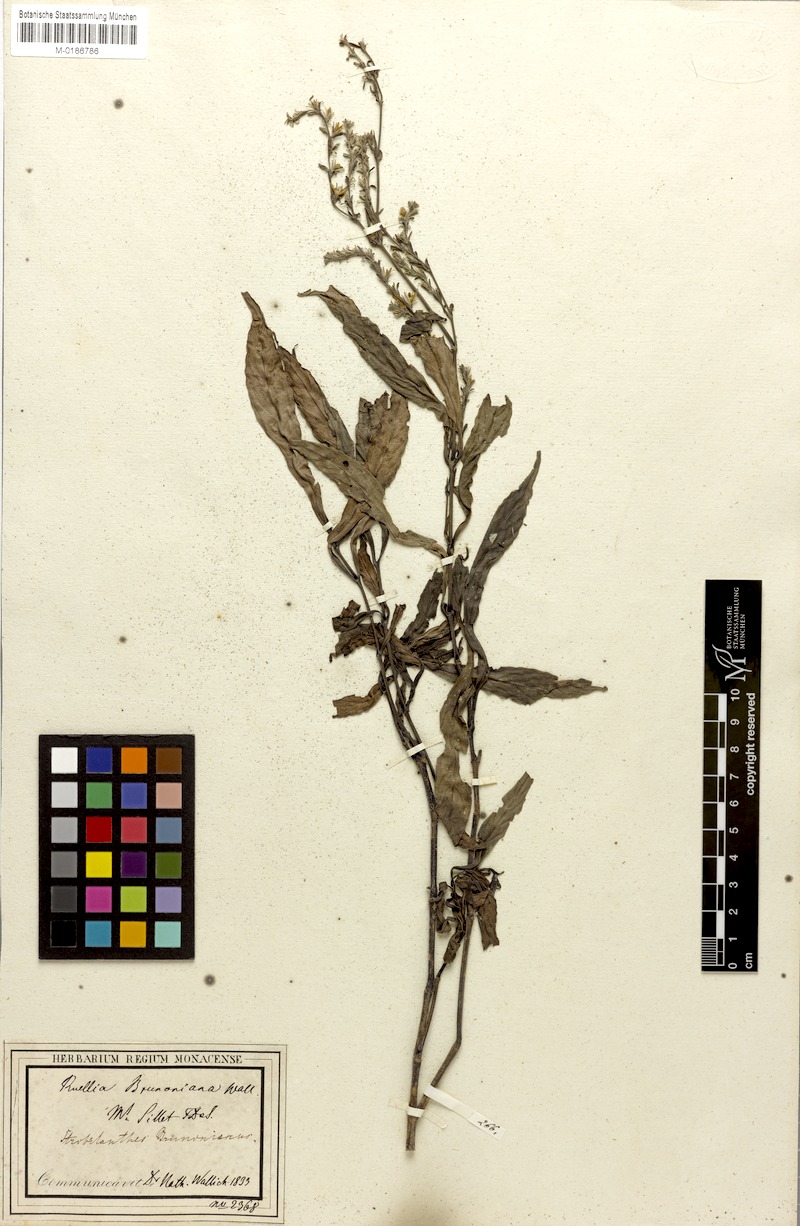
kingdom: Plantae
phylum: Tracheophyta
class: Magnoliopsida
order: Lamiales
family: Acanthaceae
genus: Strobilanthes
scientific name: Strobilanthes brunoniana
